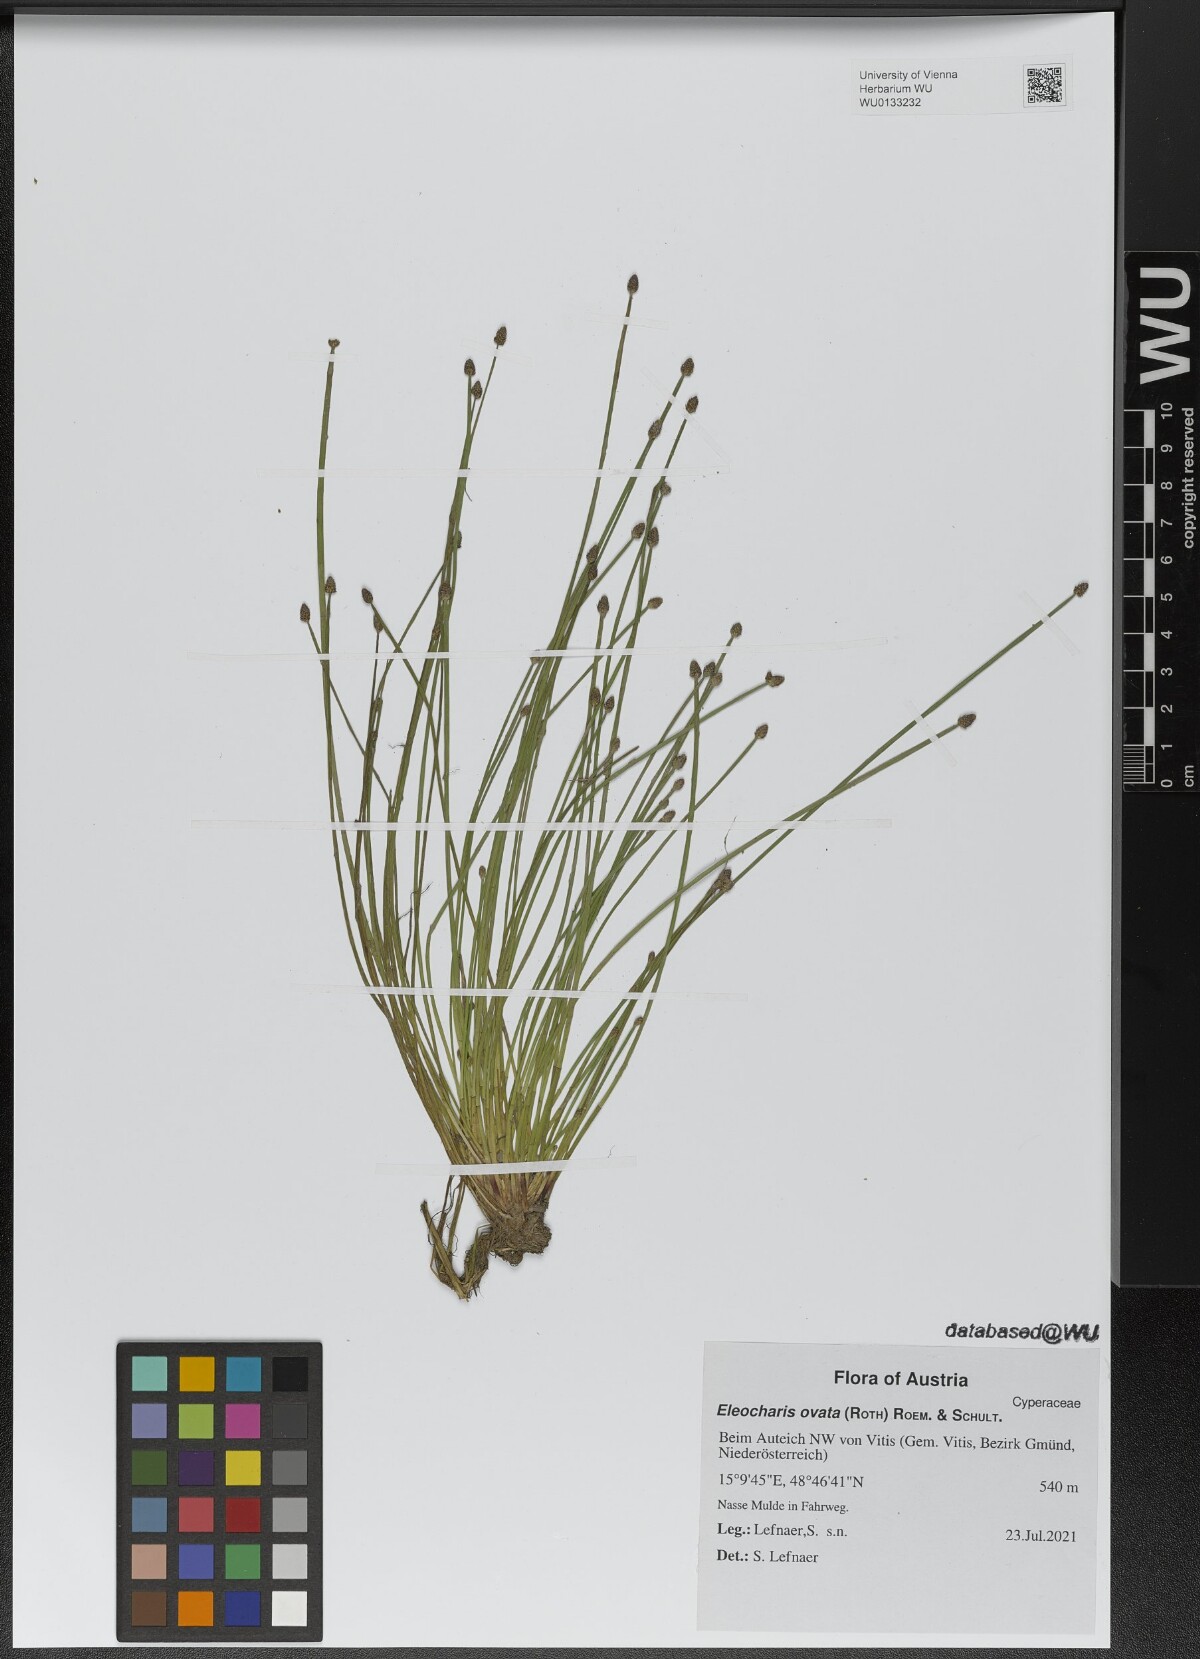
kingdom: Plantae
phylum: Tracheophyta
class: Liliopsida
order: Poales
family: Cyperaceae
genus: Eleocharis
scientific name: Eleocharis ovata
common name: Oval spike-rush
